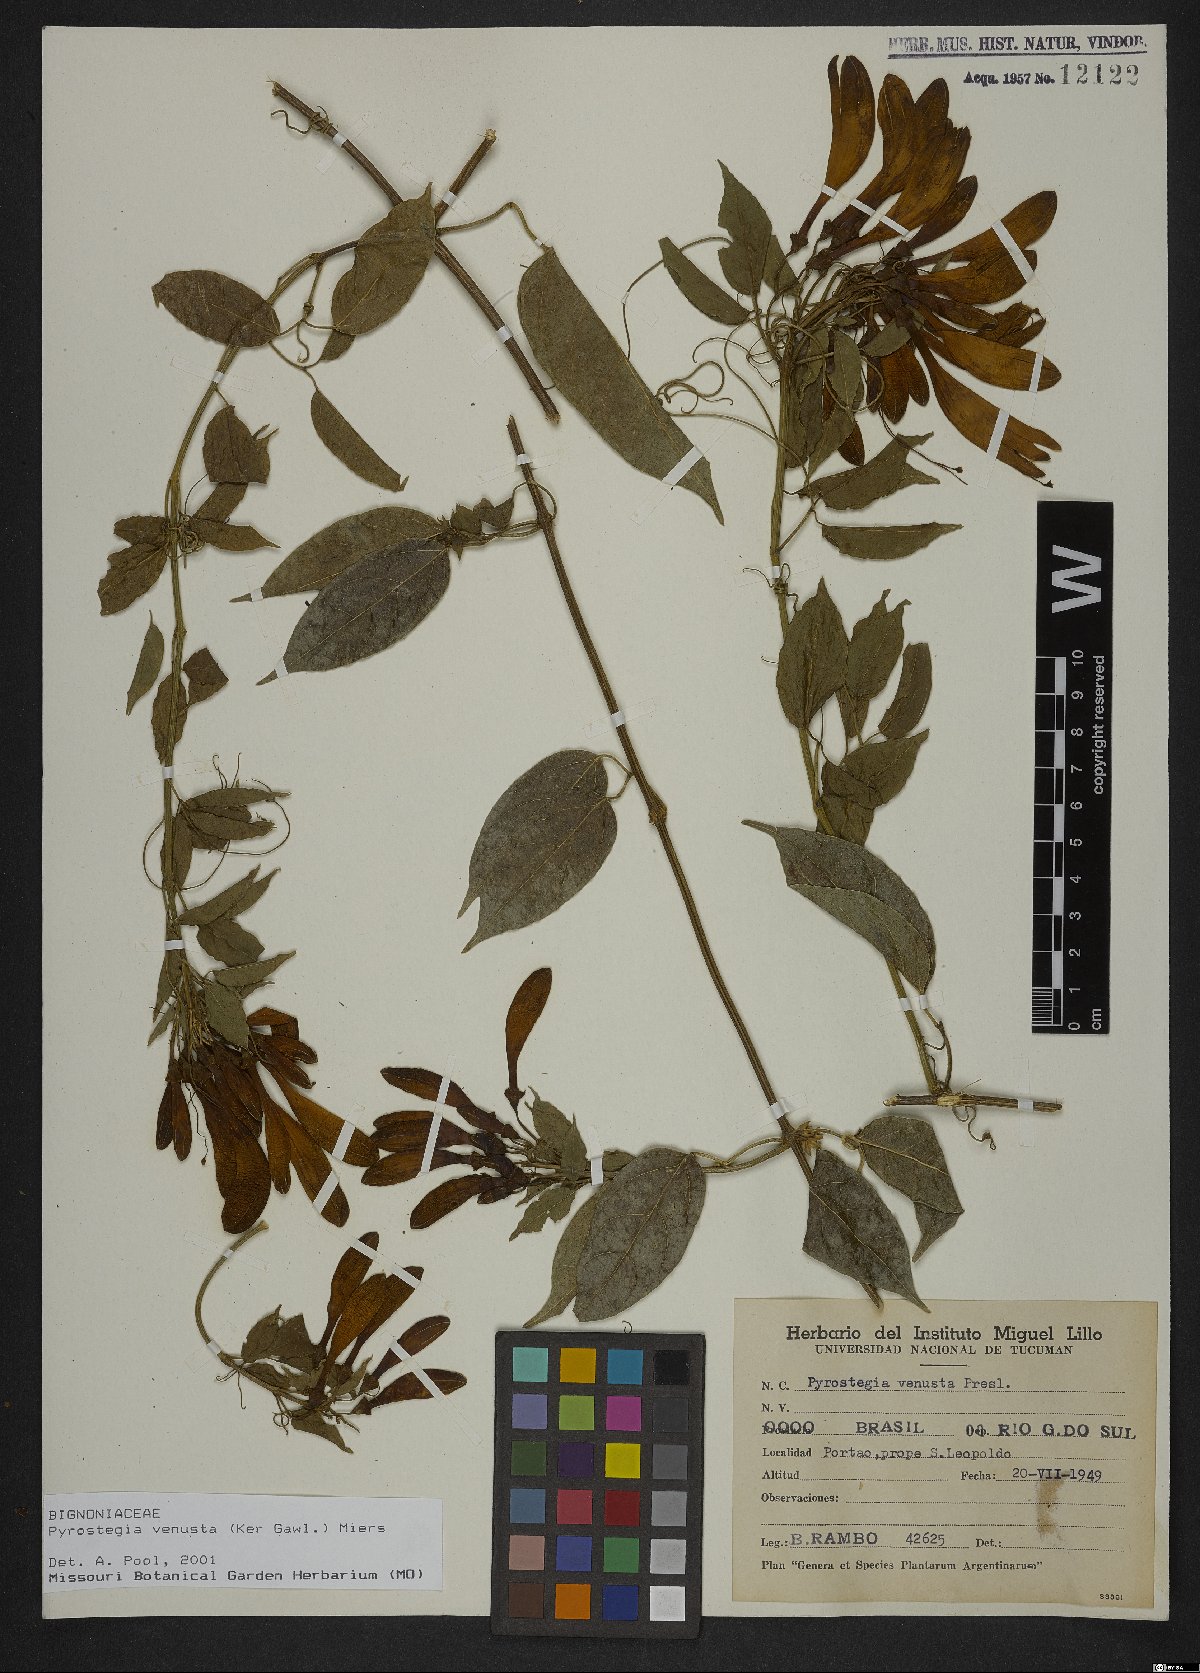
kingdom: Plantae
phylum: Tracheophyta
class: Magnoliopsida
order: Lamiales
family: Bignoniaceae
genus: Pyrostegia
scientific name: Pyrostegia venusta
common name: Flamevine
